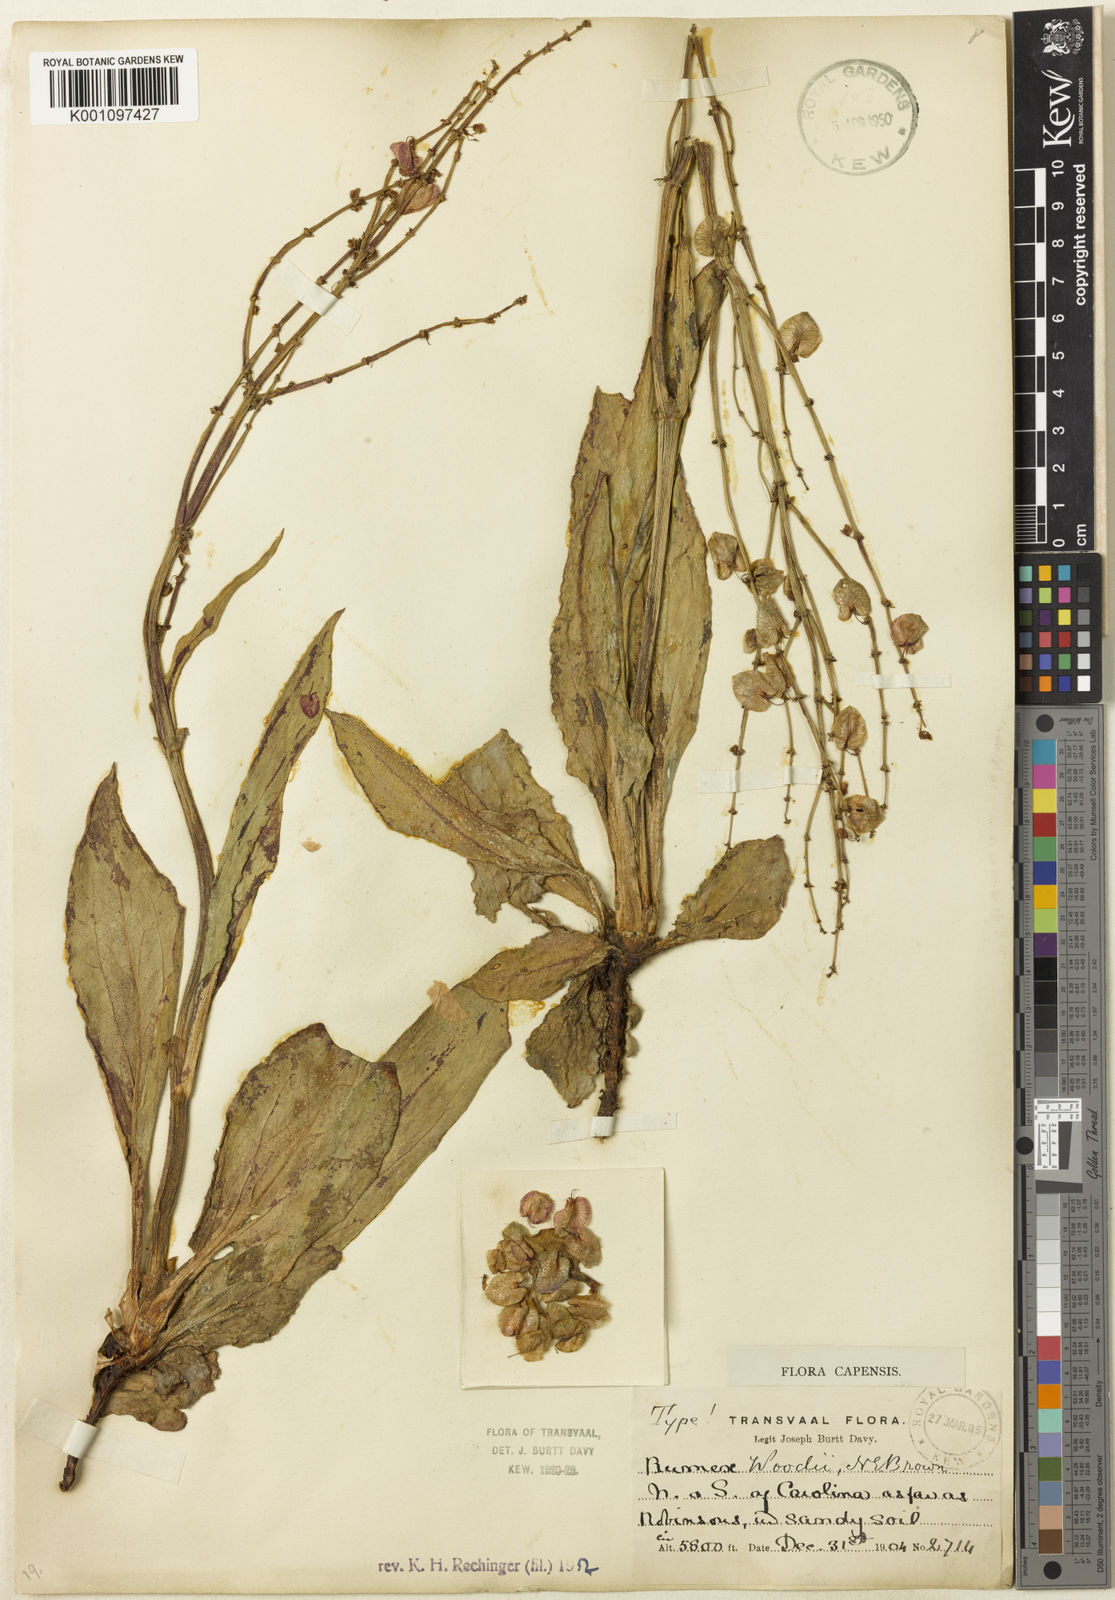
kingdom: Plantae
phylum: Tracheophyta
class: Magnoliopsida
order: Caryophyllales
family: Polygonaceae
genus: Rumex
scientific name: Rumex woodii
